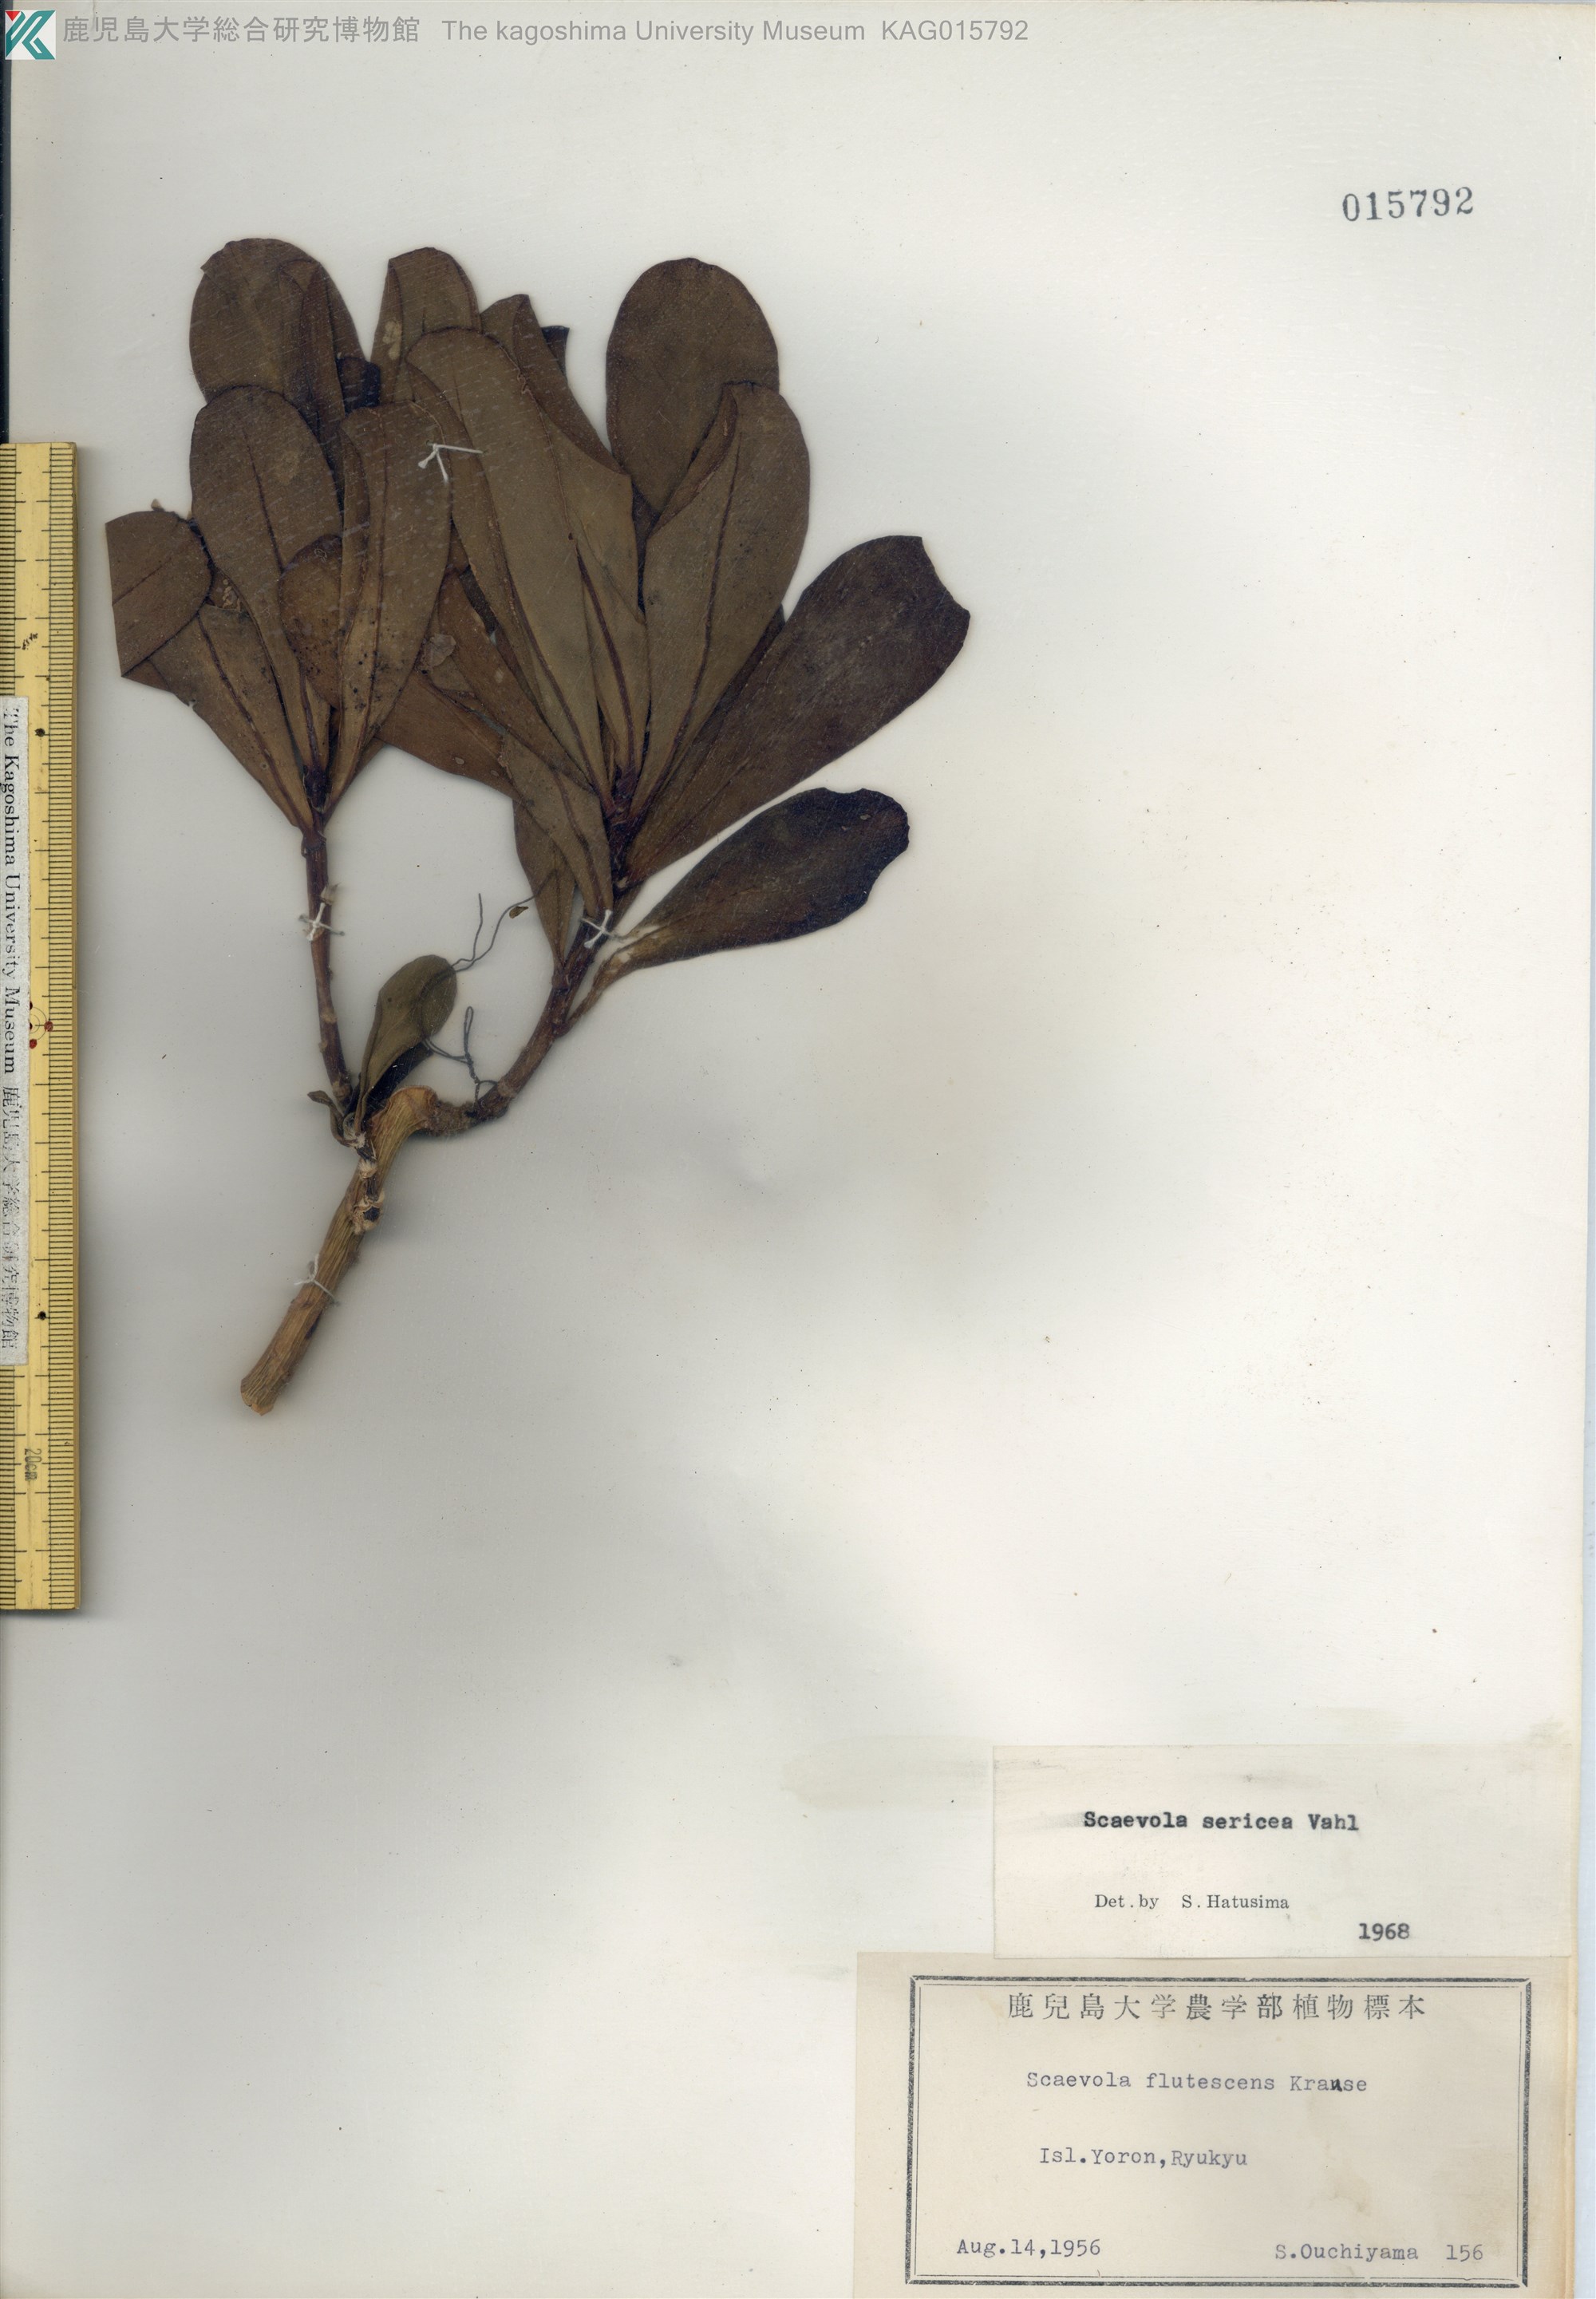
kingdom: Plantae
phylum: Tracheophyta
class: Magnoliopsida
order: Asterales
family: Goodeniaceae
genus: Scaevola
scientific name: Scaevola taccada
